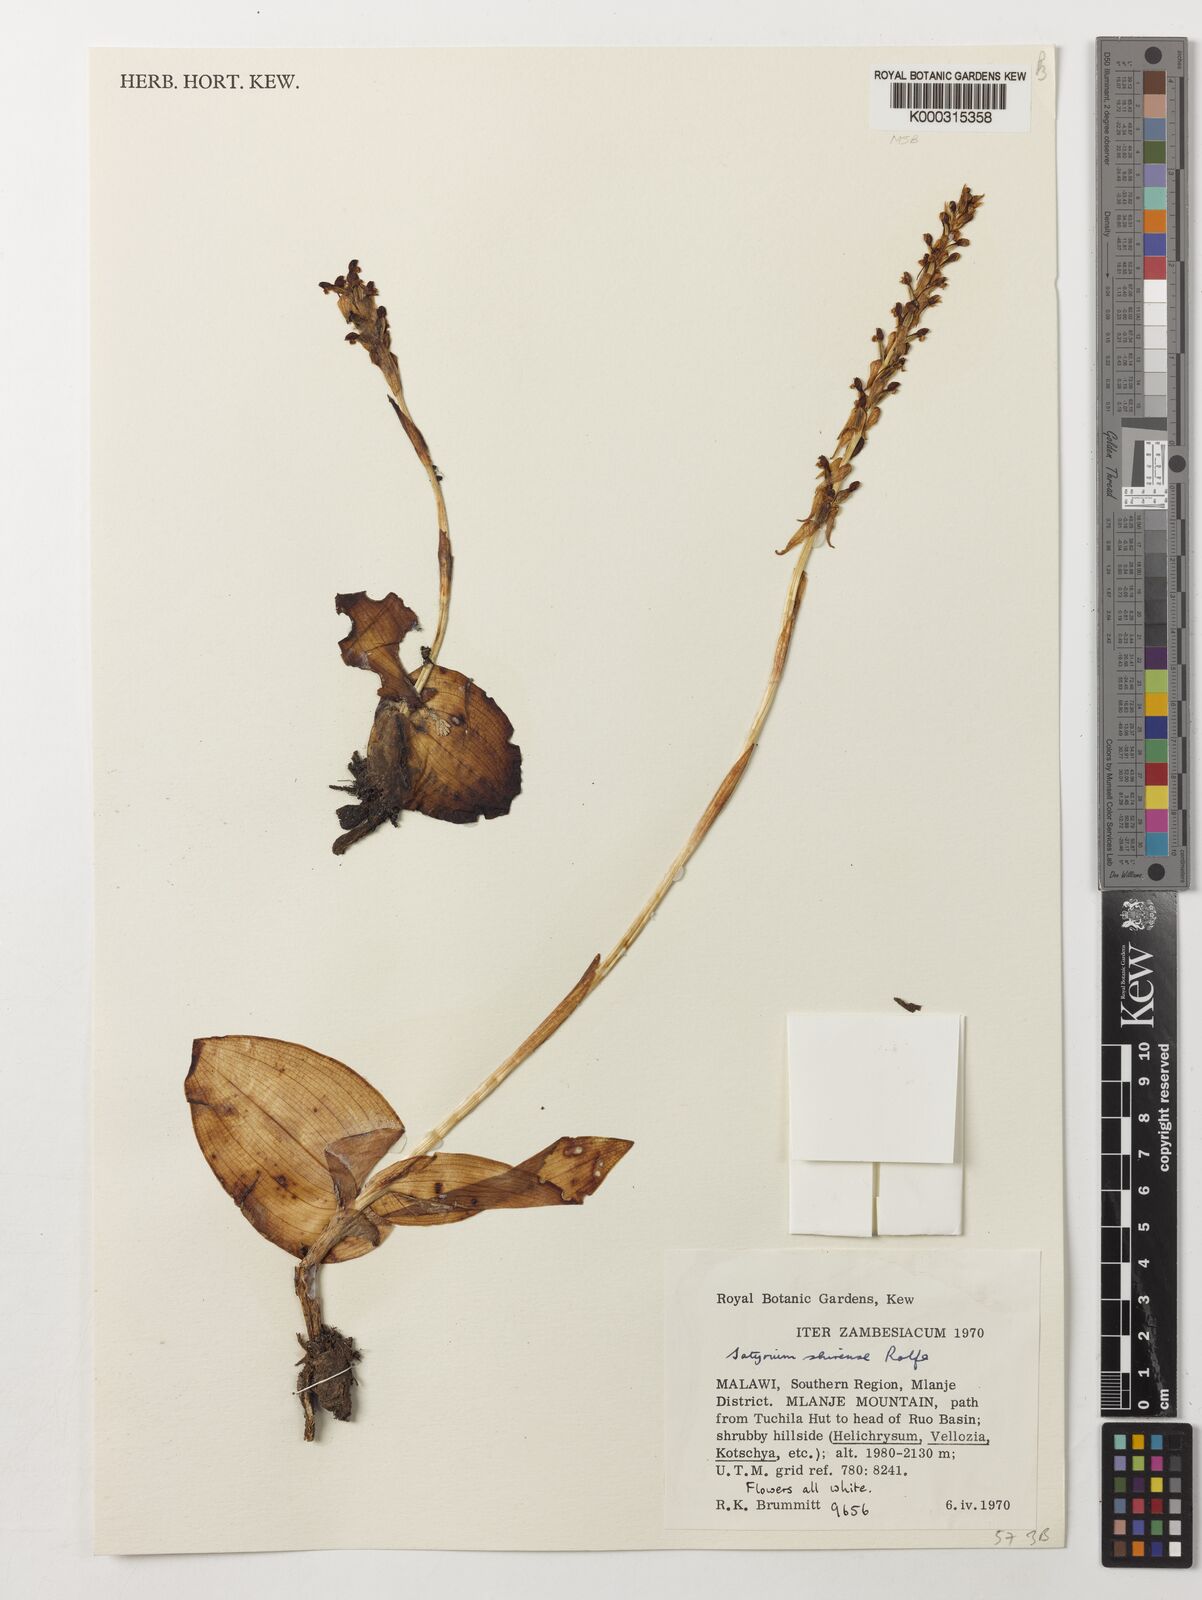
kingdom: Plantae
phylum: Tracheophyta
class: Liliopsida
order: Asparagales
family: Orchidaceae
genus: Satyrium
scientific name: Satyrium shirense
